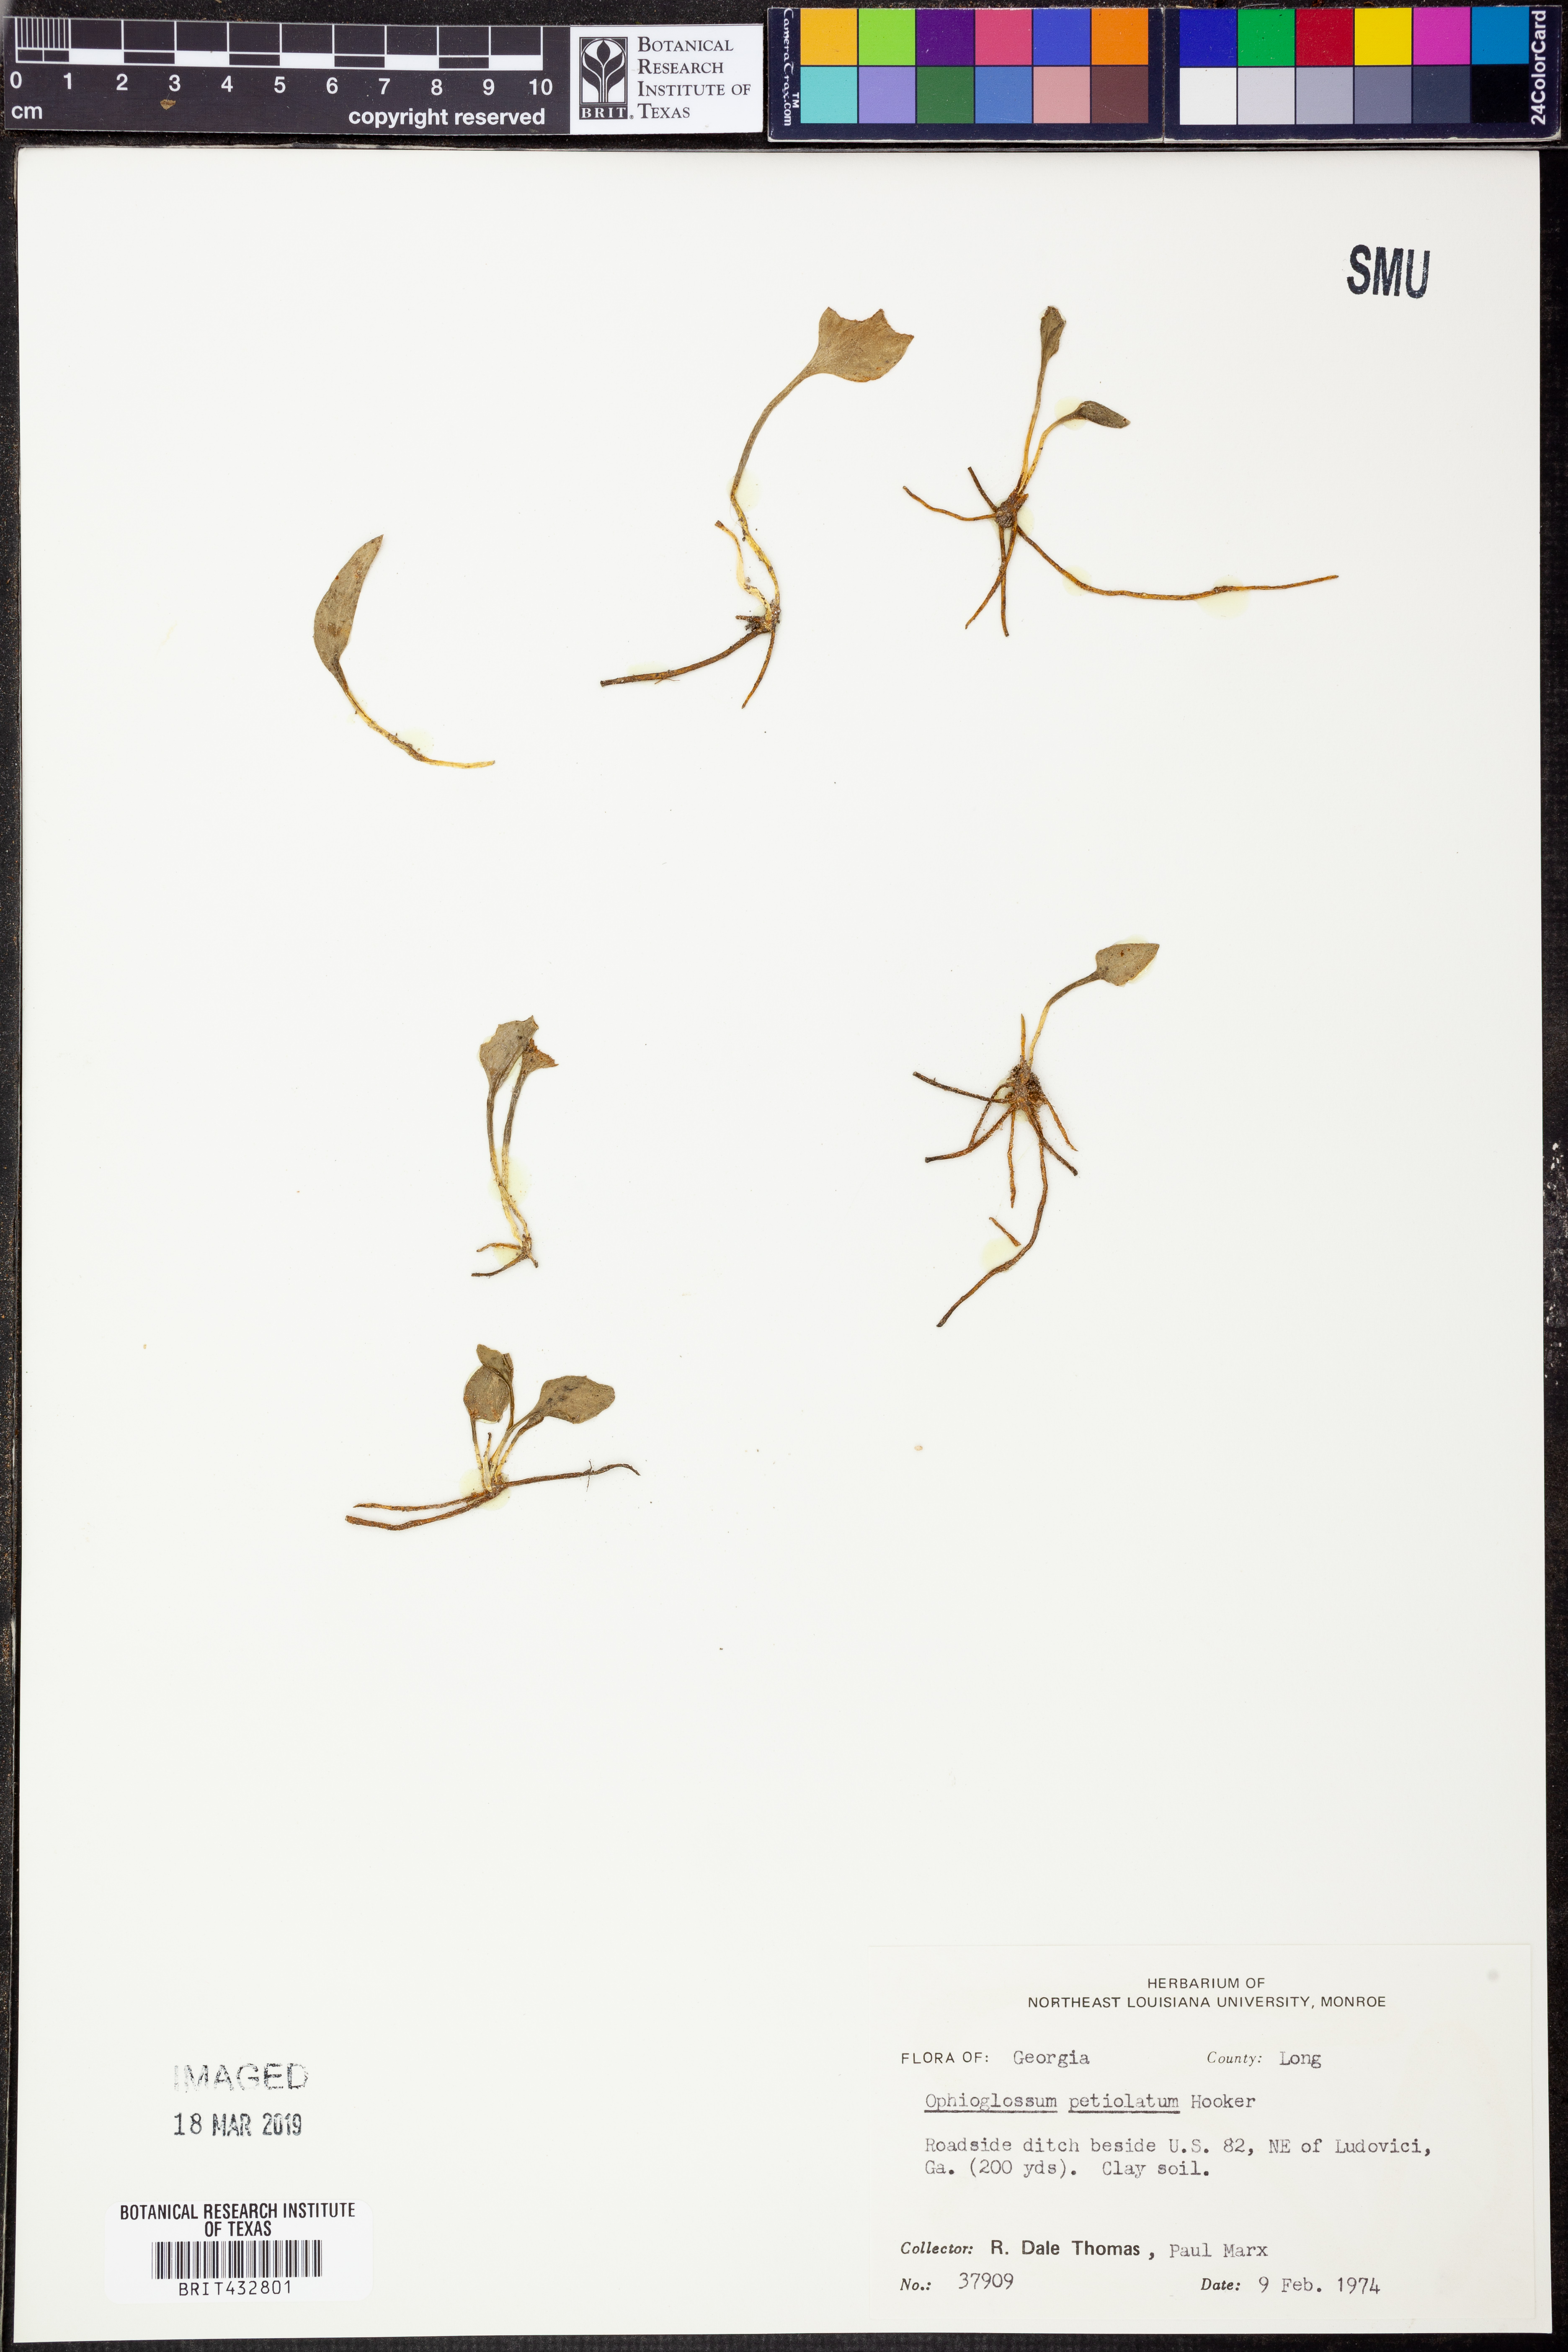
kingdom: Plantae
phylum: Tracheophyta
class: Polypodiopsida
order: Ophioglossales
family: Ophioglossaceae
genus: Ophioglossum
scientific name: Ophioglossum petiolatum
